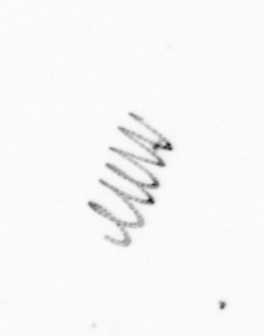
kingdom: Chromista
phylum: Ochrophyta
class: Bacillariophyceae
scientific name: Bacillariophyceae
